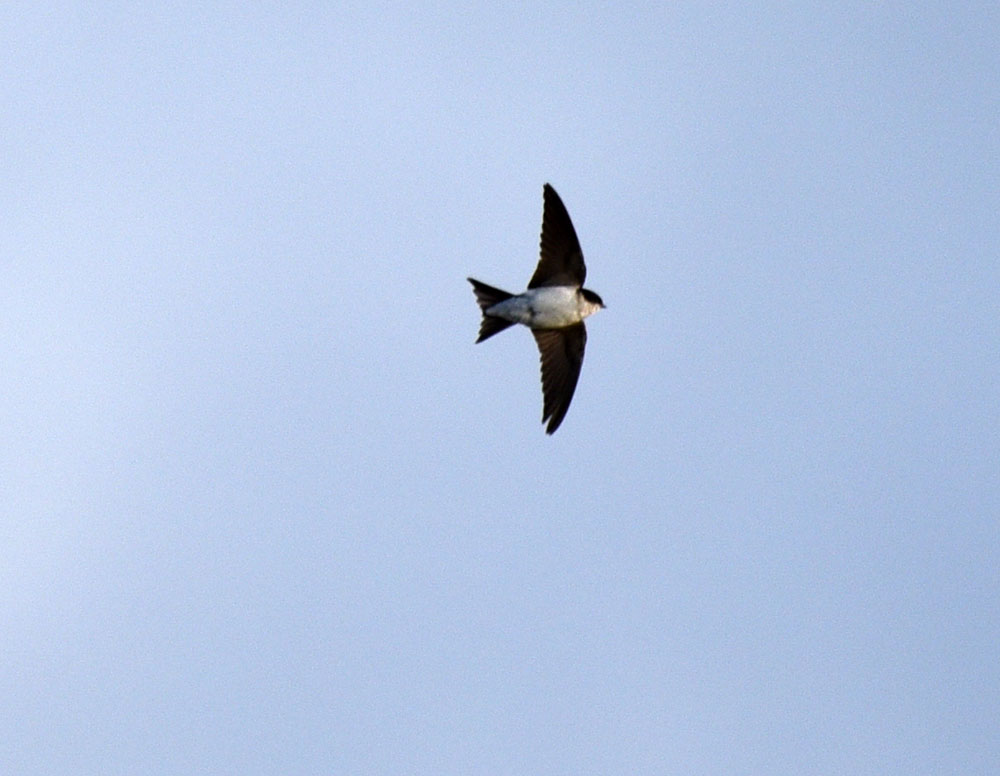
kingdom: Animalia
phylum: Chordata
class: Aves
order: Passeriformes
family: Hirundinidae
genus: Delichon
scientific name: Delichon urbicum
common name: Common house martin
